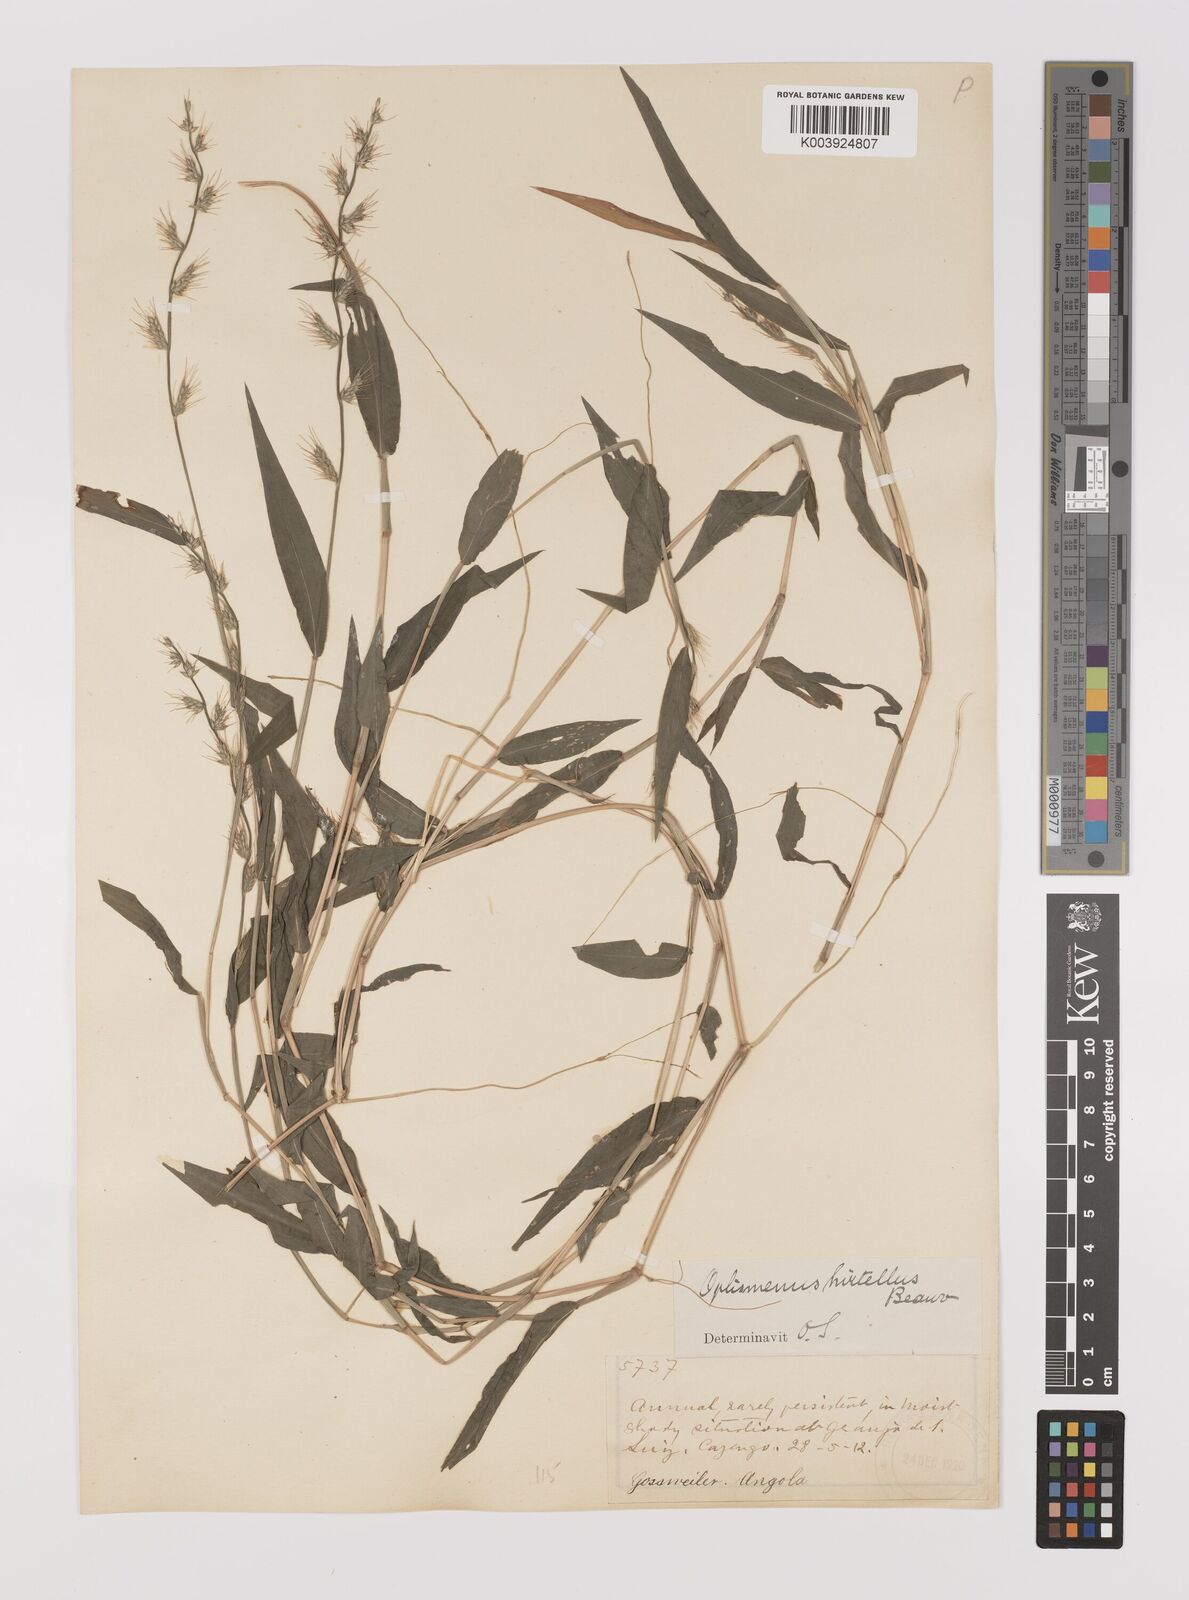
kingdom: Plantae
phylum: Tracheophyta
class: Liliopsida
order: Poales
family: Poaceae
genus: Oplismenus
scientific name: Oplismenus hirtellus
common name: Basketgrass
